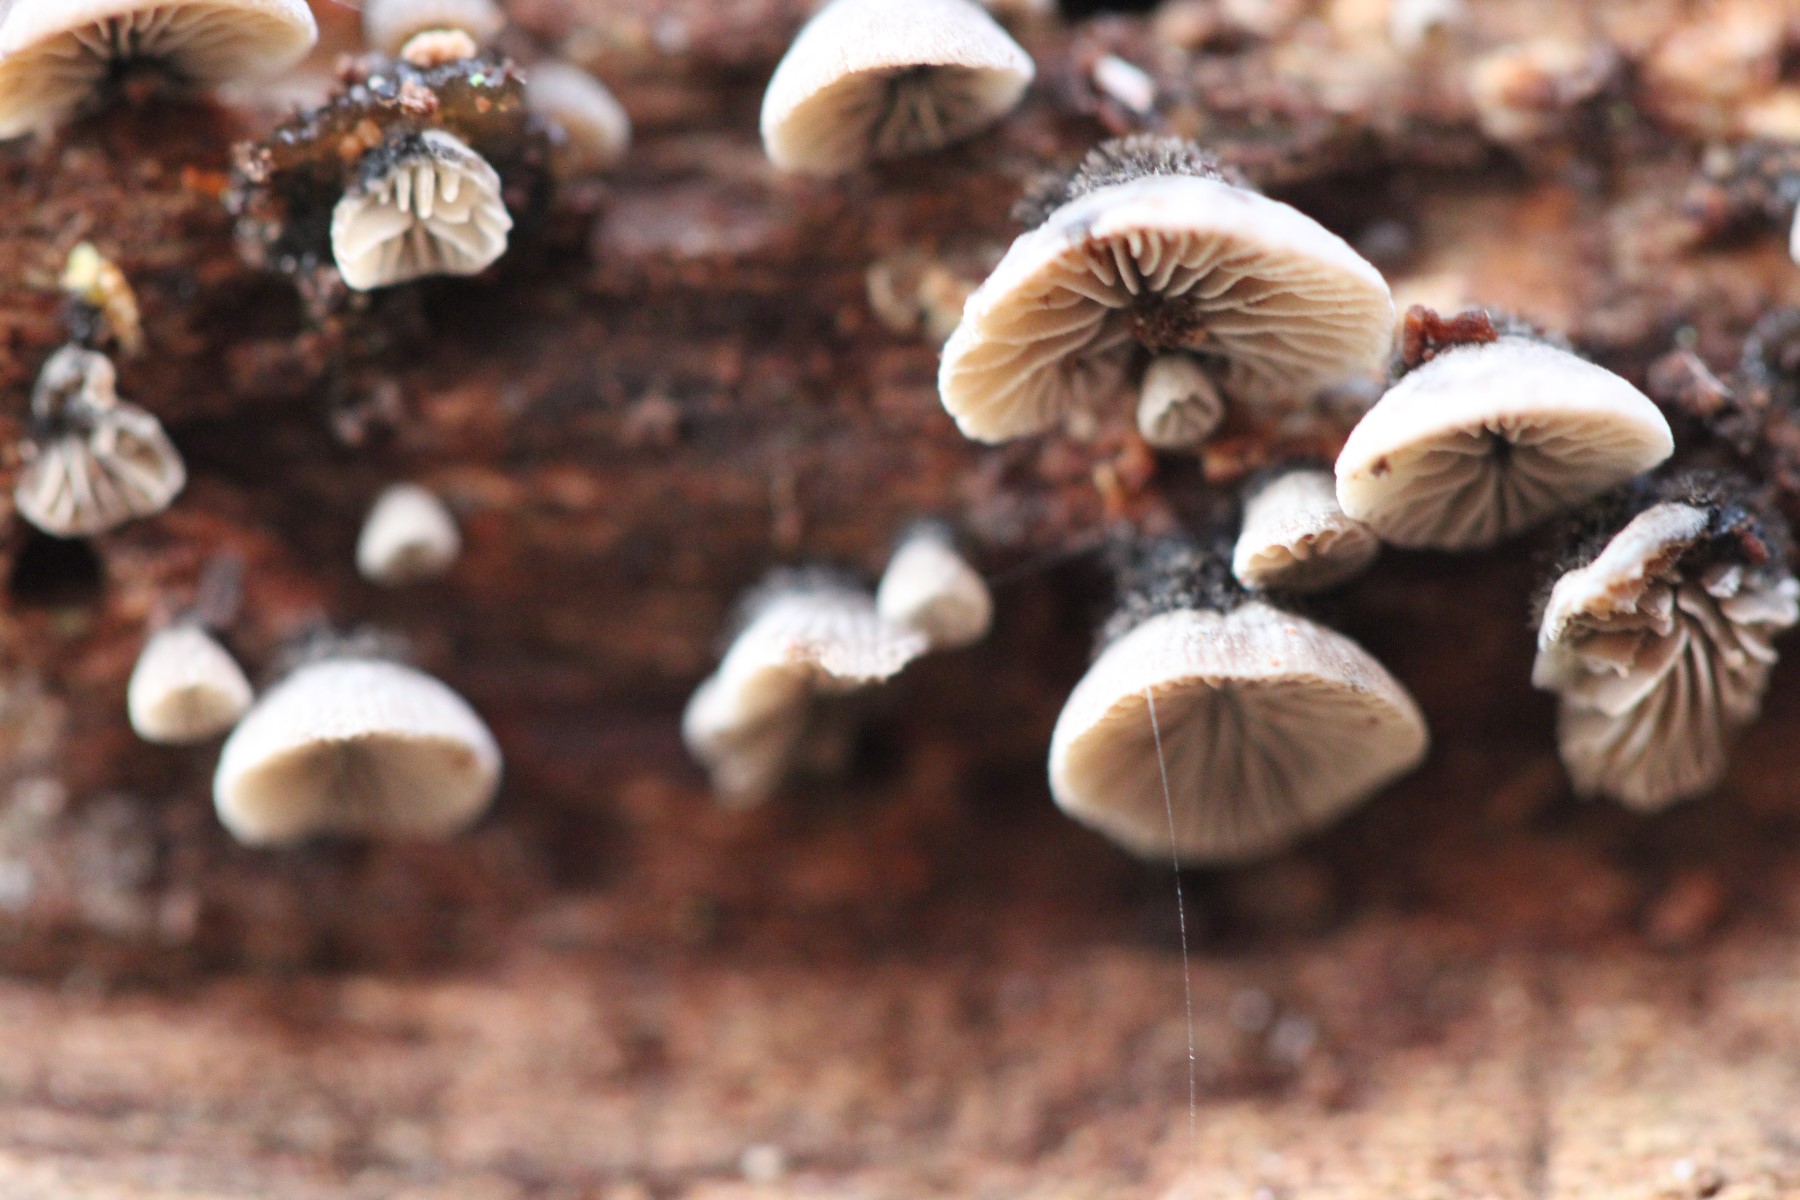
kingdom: Fungi
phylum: Basidiomycota
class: Agaricomycetes
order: Agaricales
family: Pleurotaceae
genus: Resupinatus
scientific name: Resupinatus trichotis
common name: mørkfiltet barkhat
